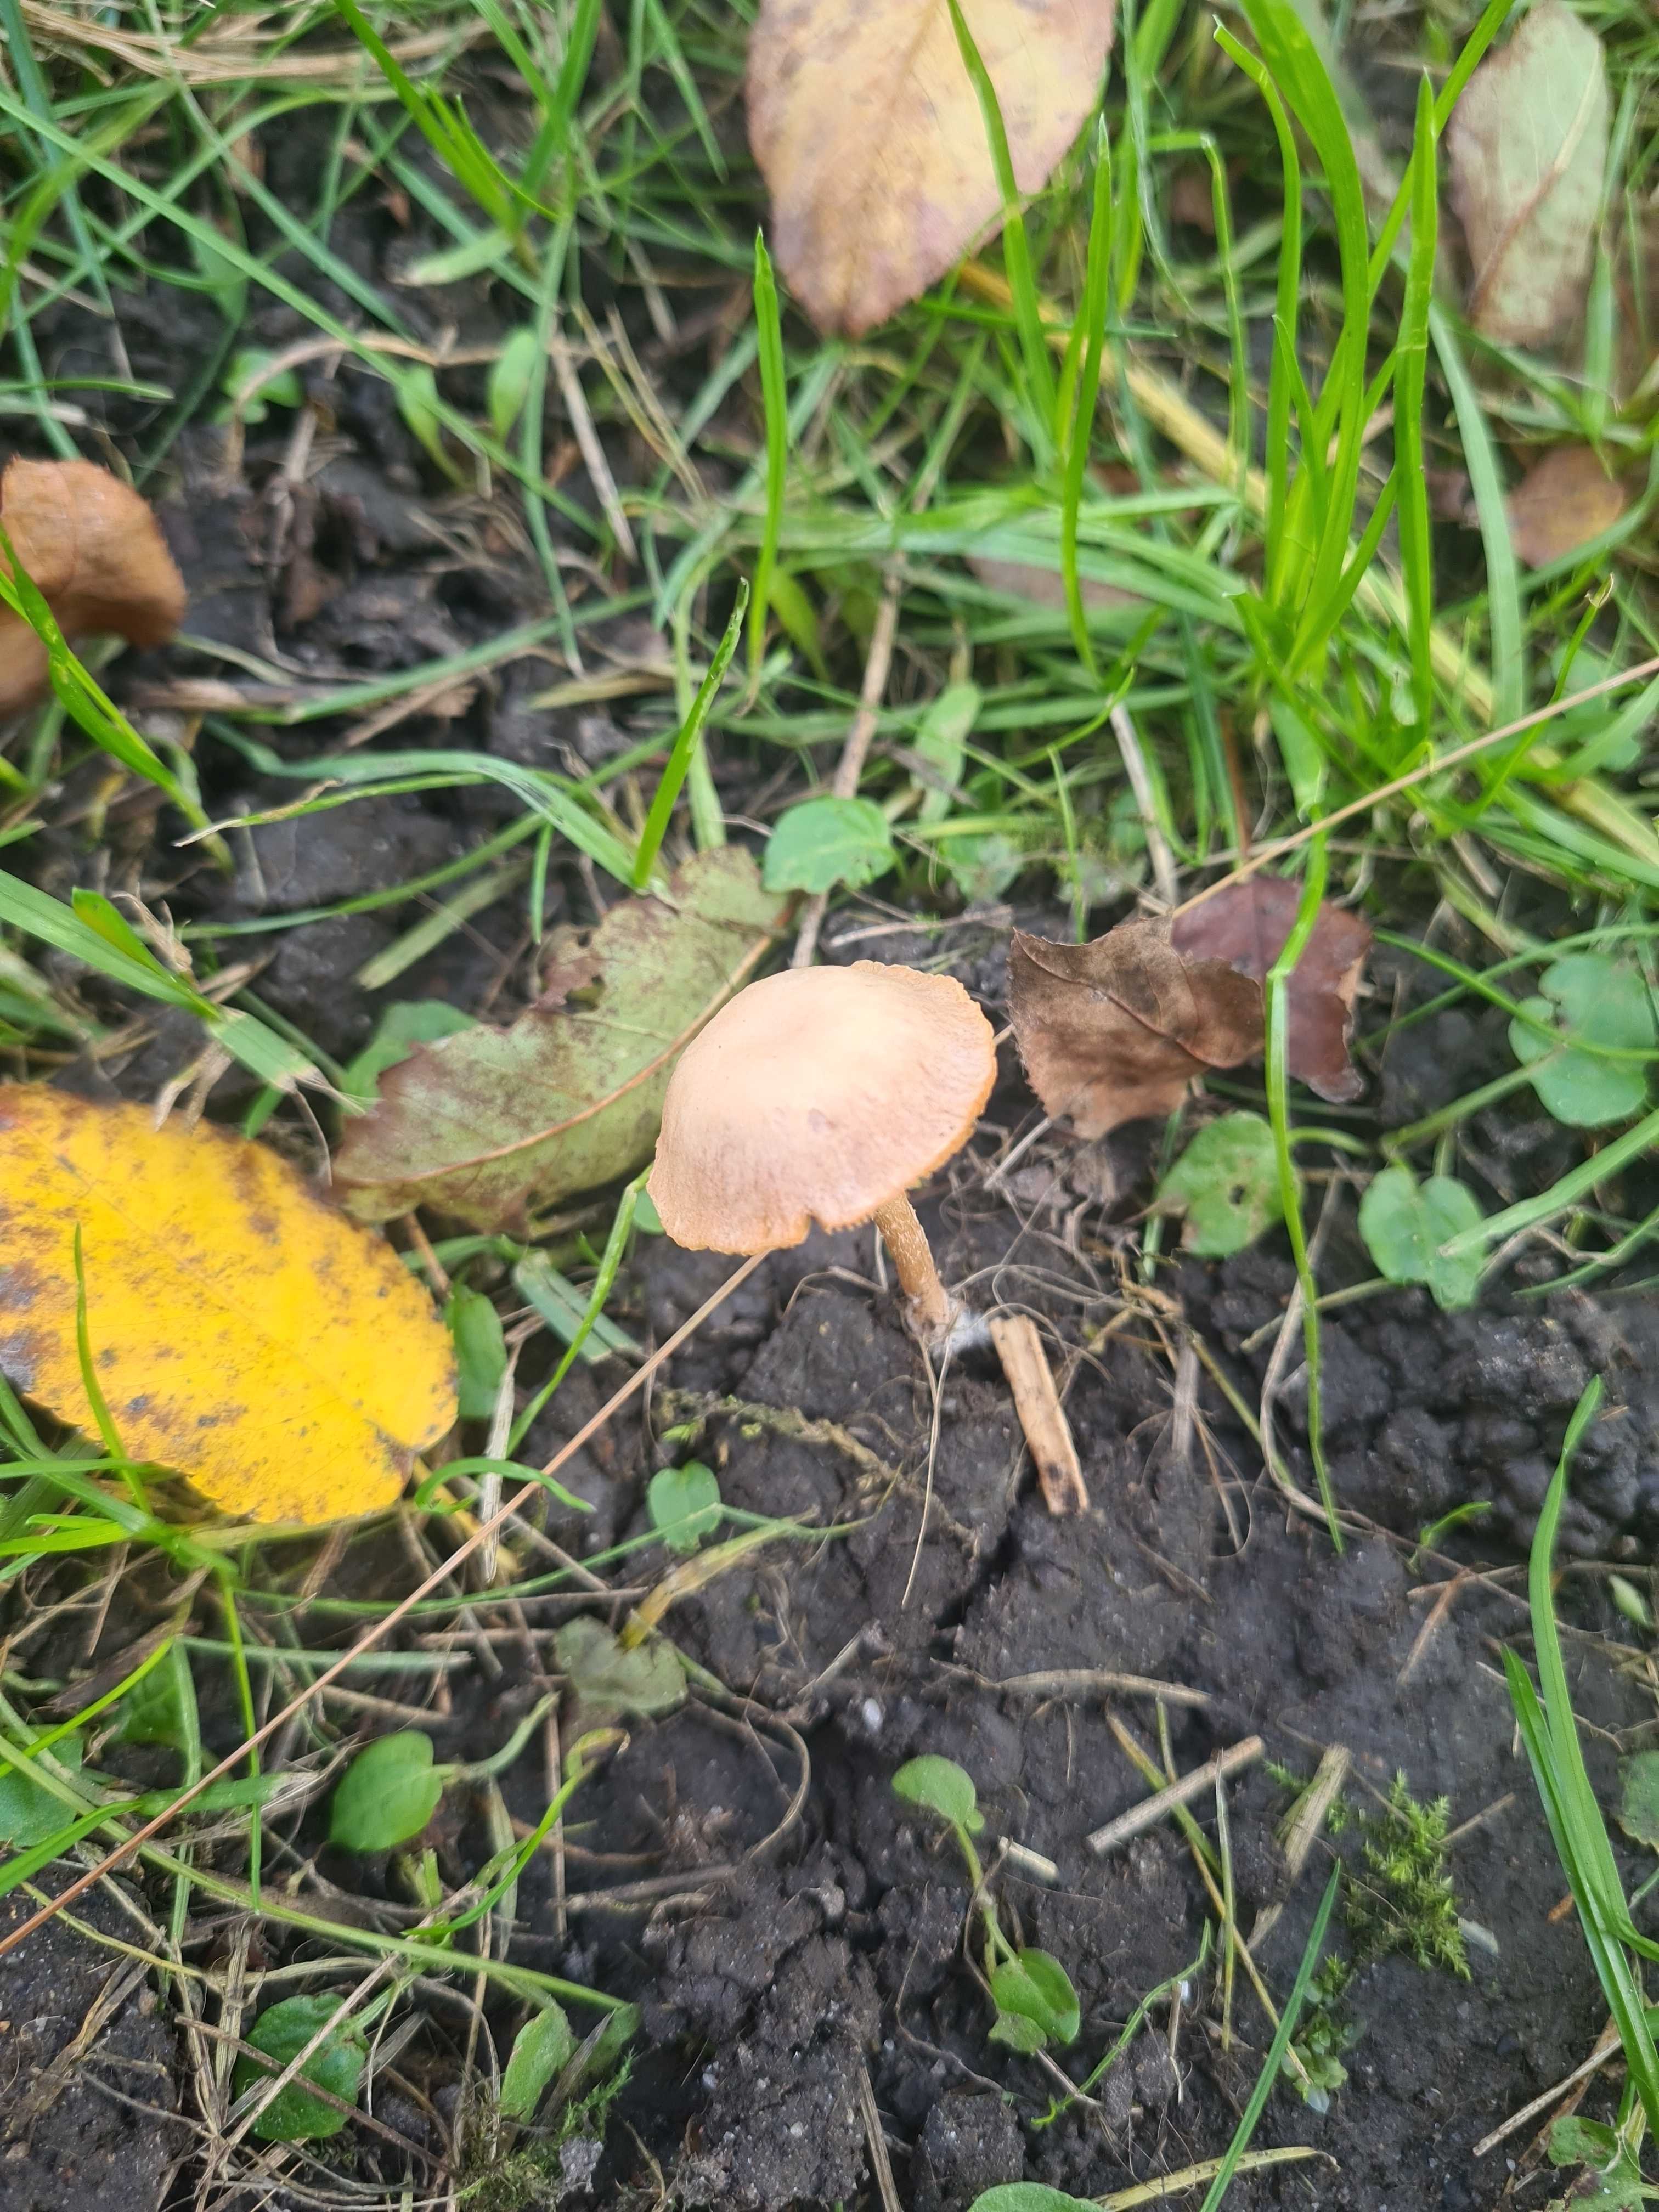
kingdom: Fungi
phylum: Basidiomycota
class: Agaricomycetes
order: Agaricales
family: Tubariaceae
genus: Tubaria
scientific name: Tubaria furfuracea
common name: kliddet fnughat
